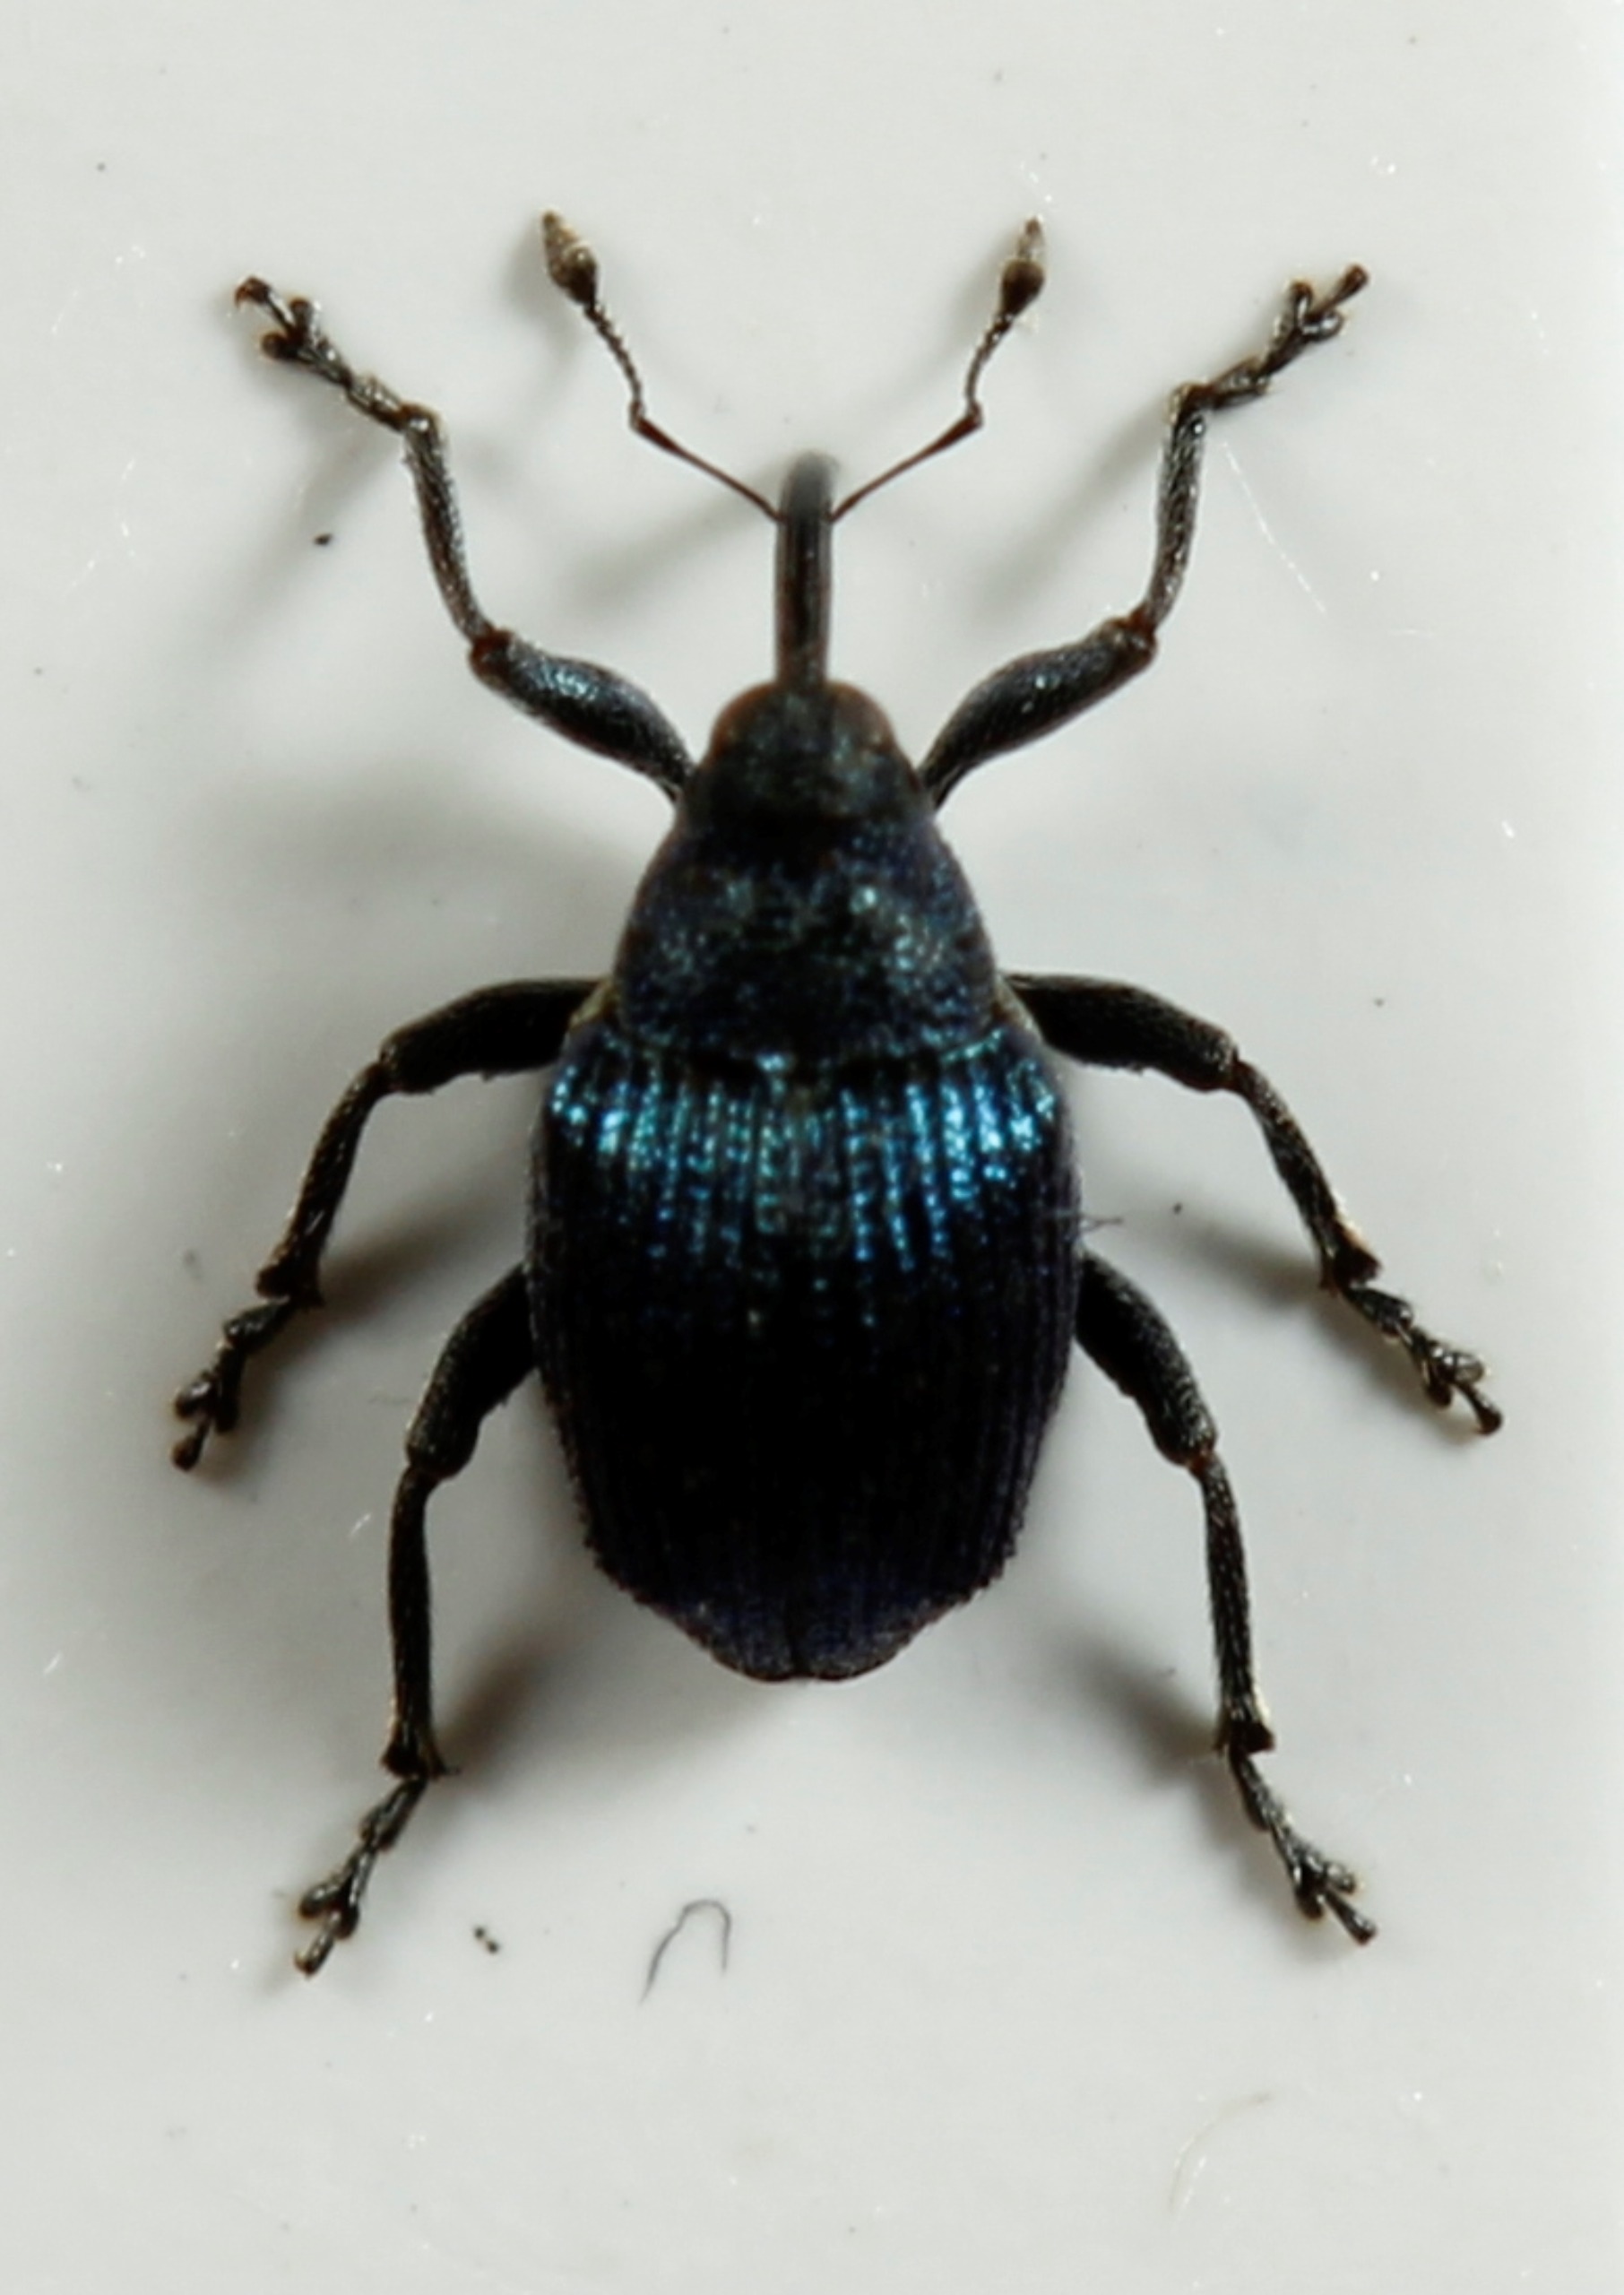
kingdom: Animalia
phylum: Arthropoda
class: Insecta
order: Coleoptera
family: Curculionidae
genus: Ceutorhynchus
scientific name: Ceutorhynchus ignitus
